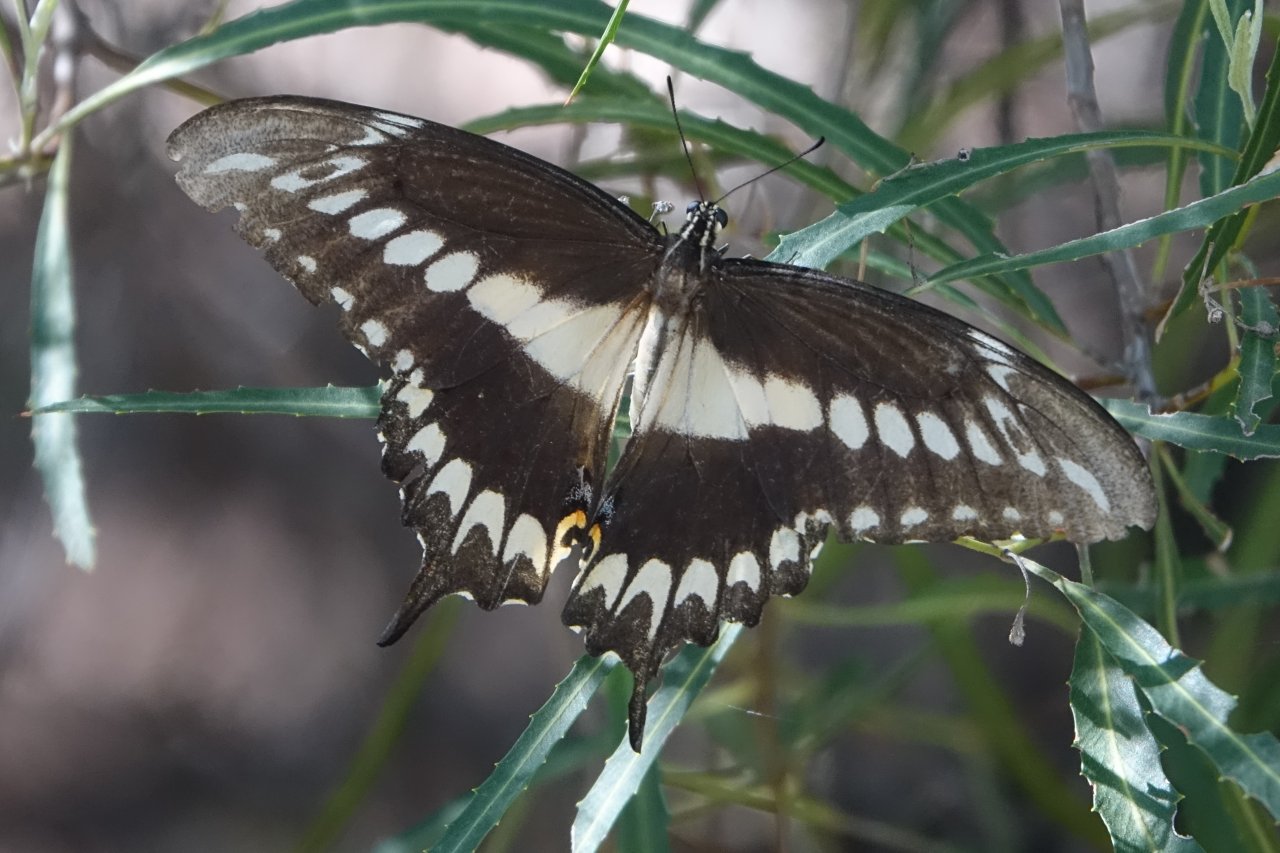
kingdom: Animalia
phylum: Arthropoda
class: Insecta
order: Lepidoptera
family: Papilionidae
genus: Papilio
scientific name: Papilio ornythion
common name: Ornythion Swallowtail
